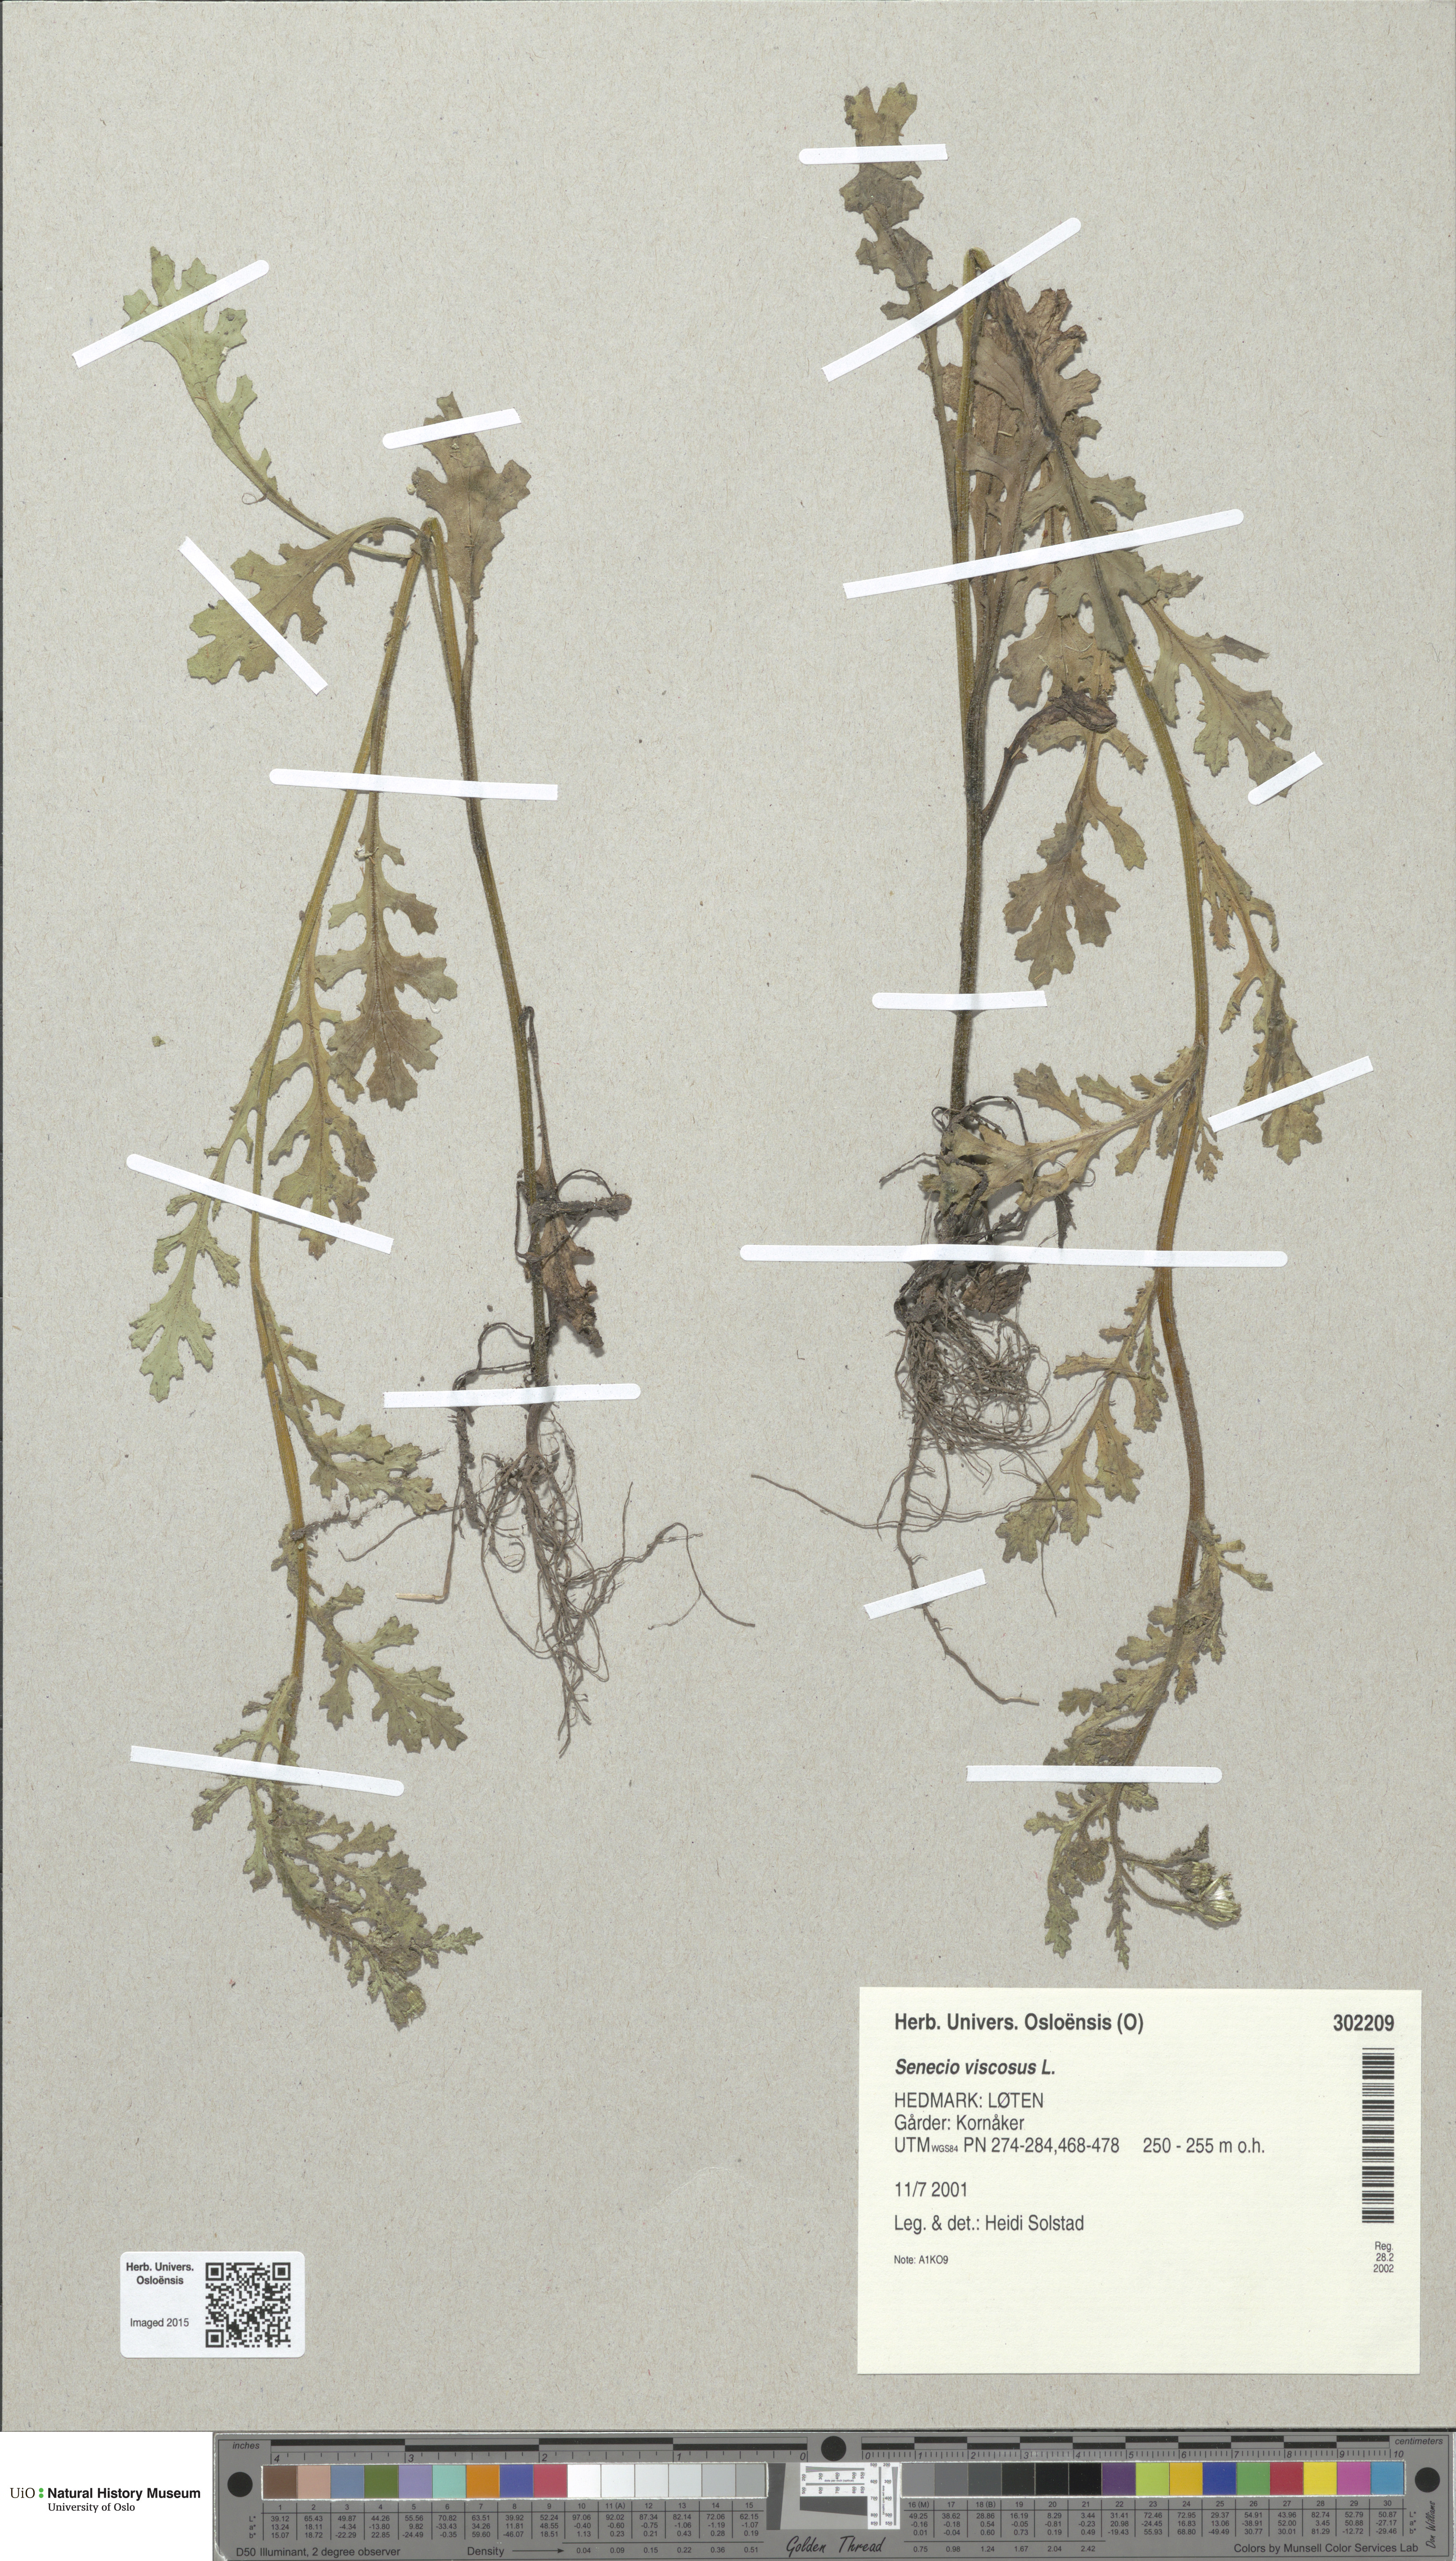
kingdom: Plantae
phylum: Tracheophyta
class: Magnoliopsida
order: Asterales
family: Asteraceae
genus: Senecio
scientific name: Senecio viscosus
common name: Sticky groundsel
